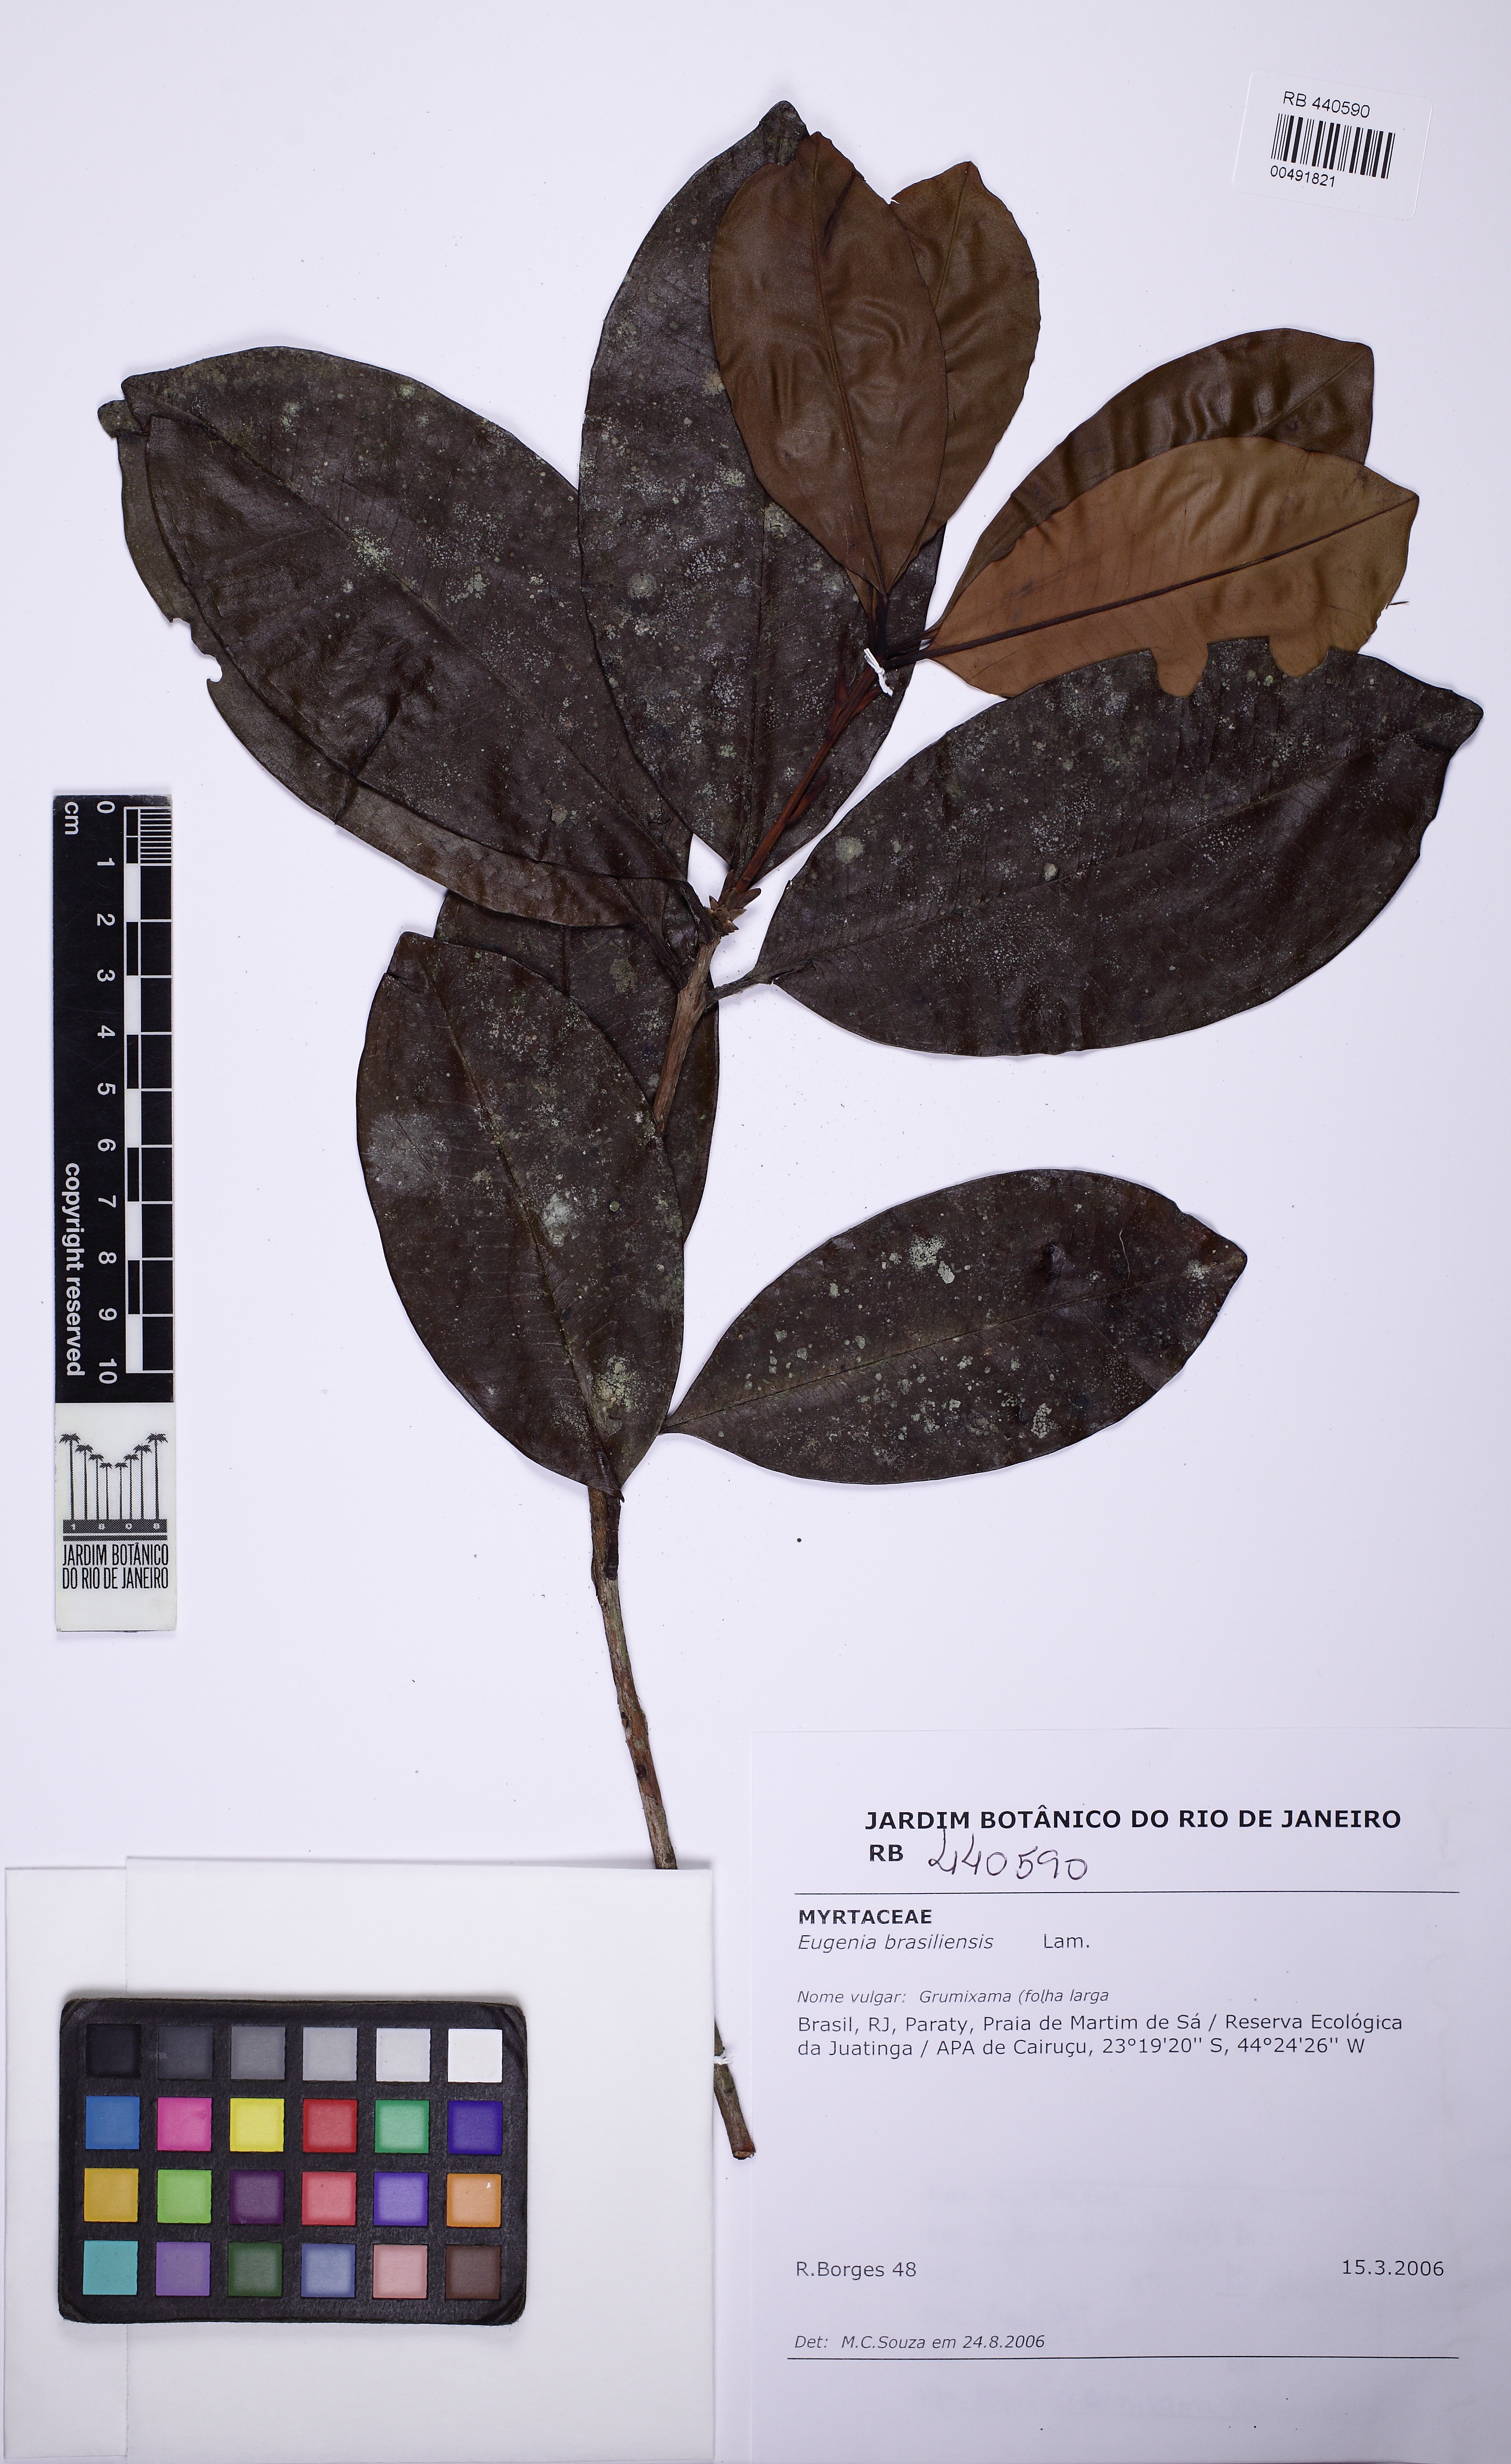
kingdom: Plantae
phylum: Tracheophyta
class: Magnoliopsida
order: Myrtales
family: Myrtaceae
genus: Eugenia
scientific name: Eugenia brasiliensis
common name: Grumichama
